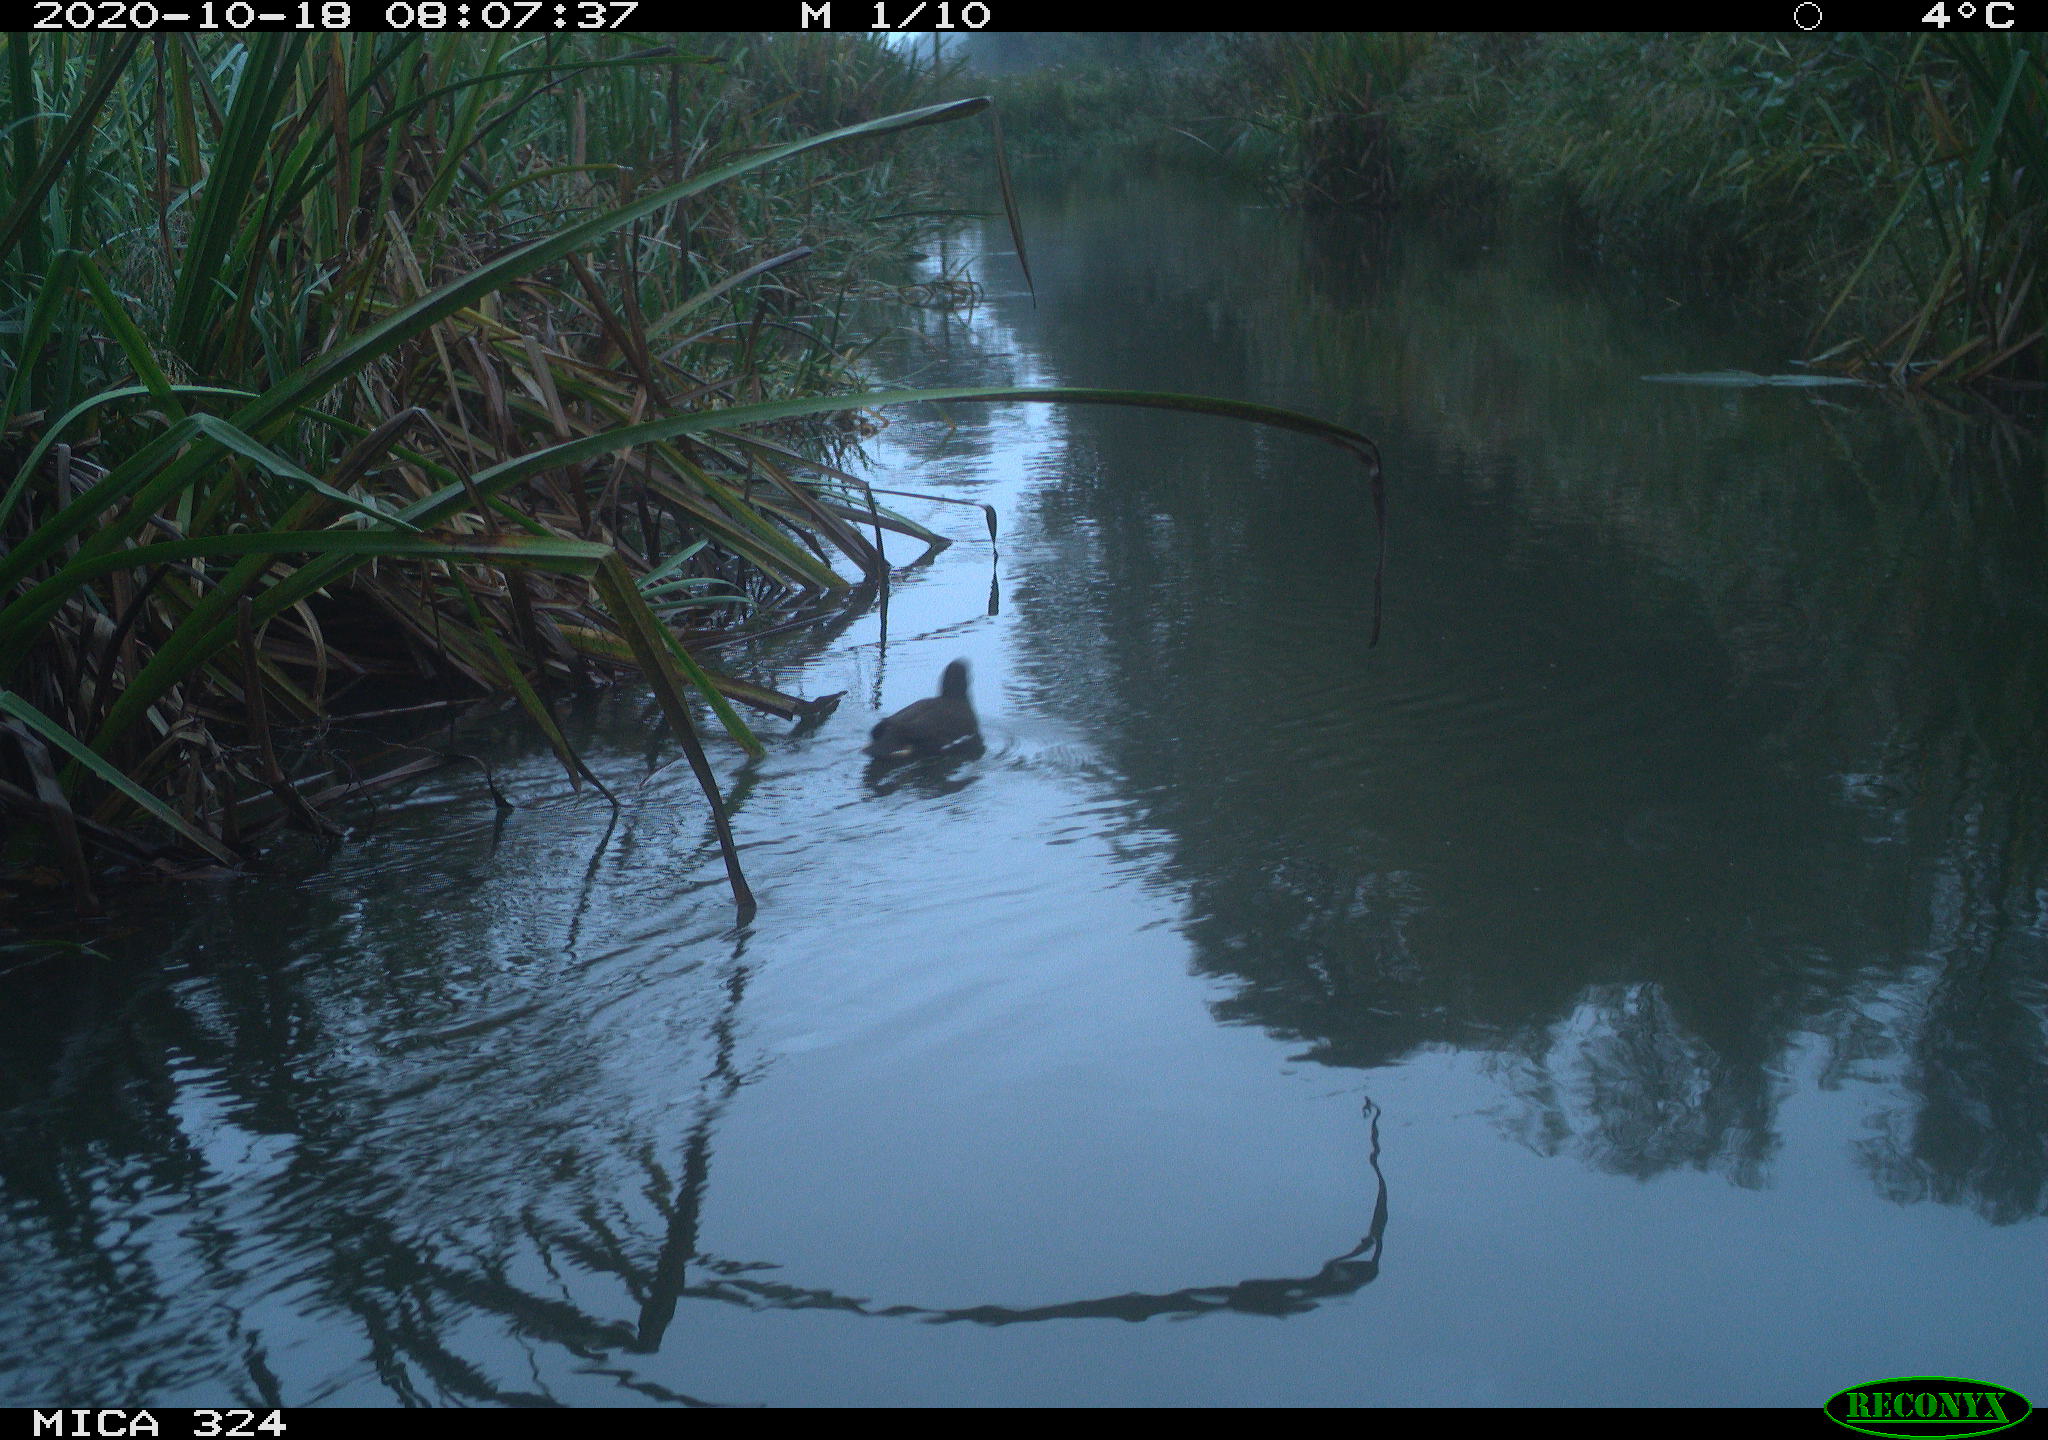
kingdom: Animalia
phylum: Chordata
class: Aves
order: Gruiformes
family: Rallidae
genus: Gallinula
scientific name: Gallinula chloropus
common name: Common moorhen
